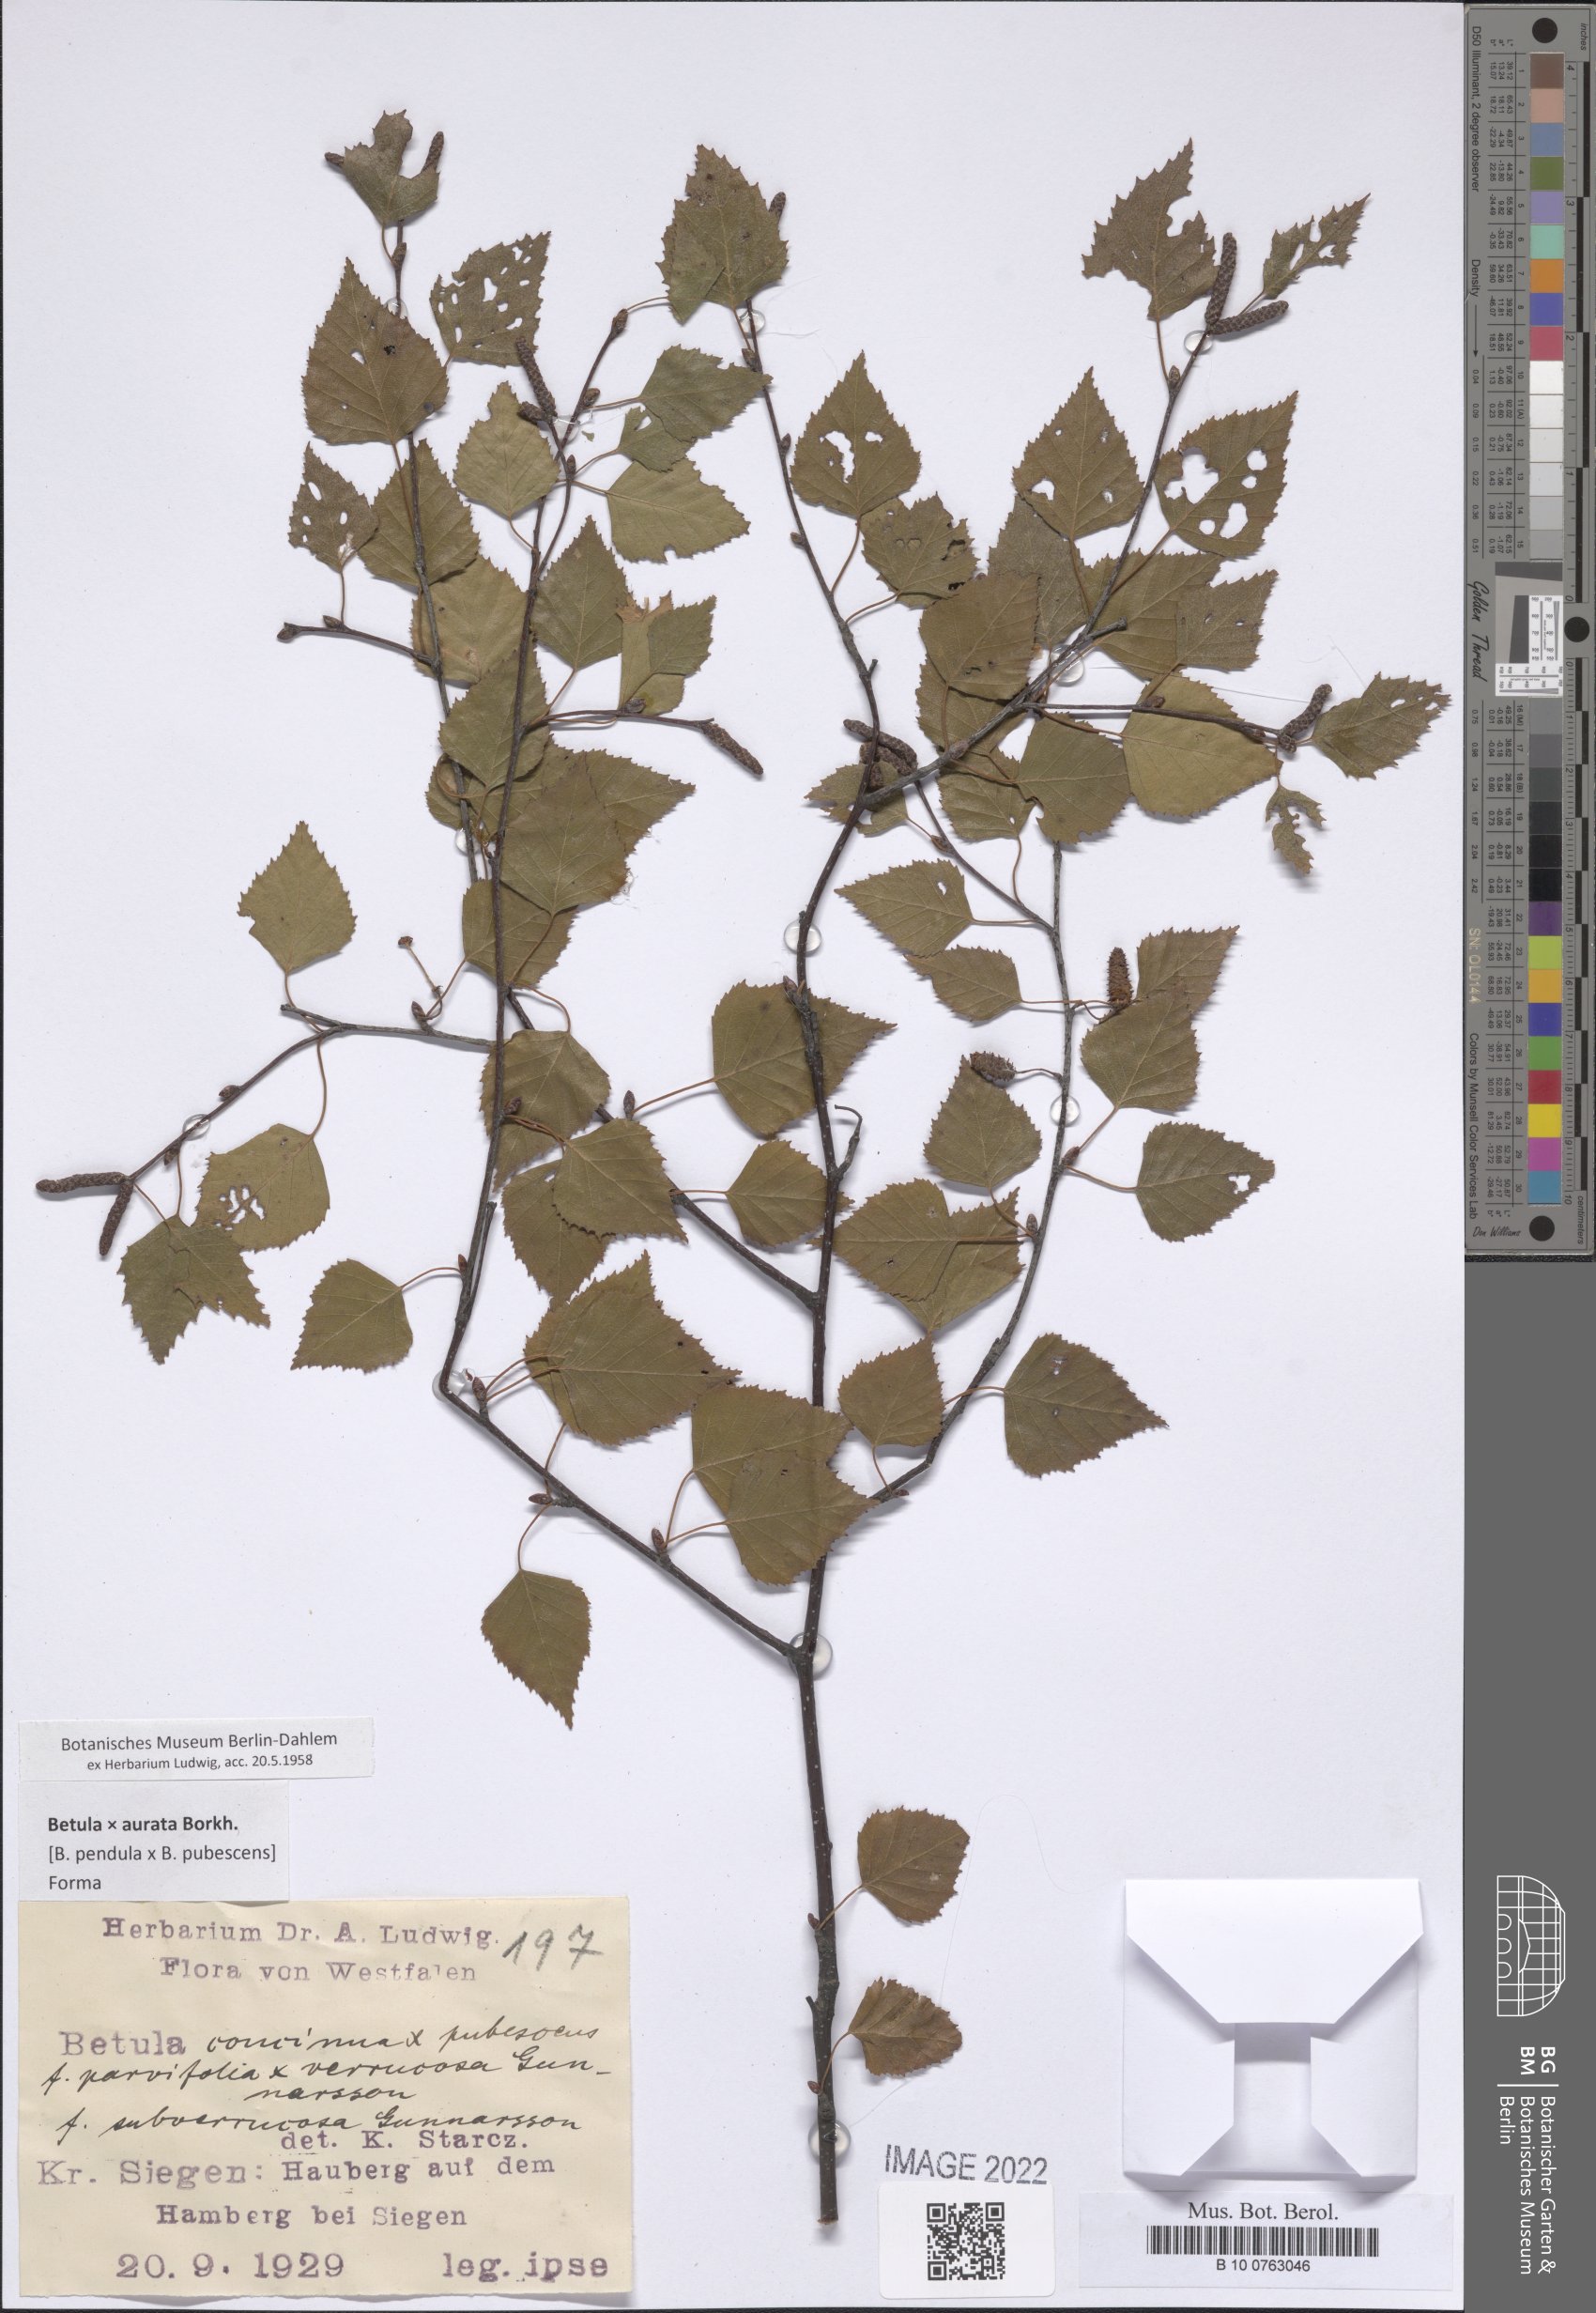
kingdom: Plantae
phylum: Tracheophyta
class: Polypodiopsida
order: Polypodiales
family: Polypodiaceae
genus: Polypodium
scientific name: Polypodium
